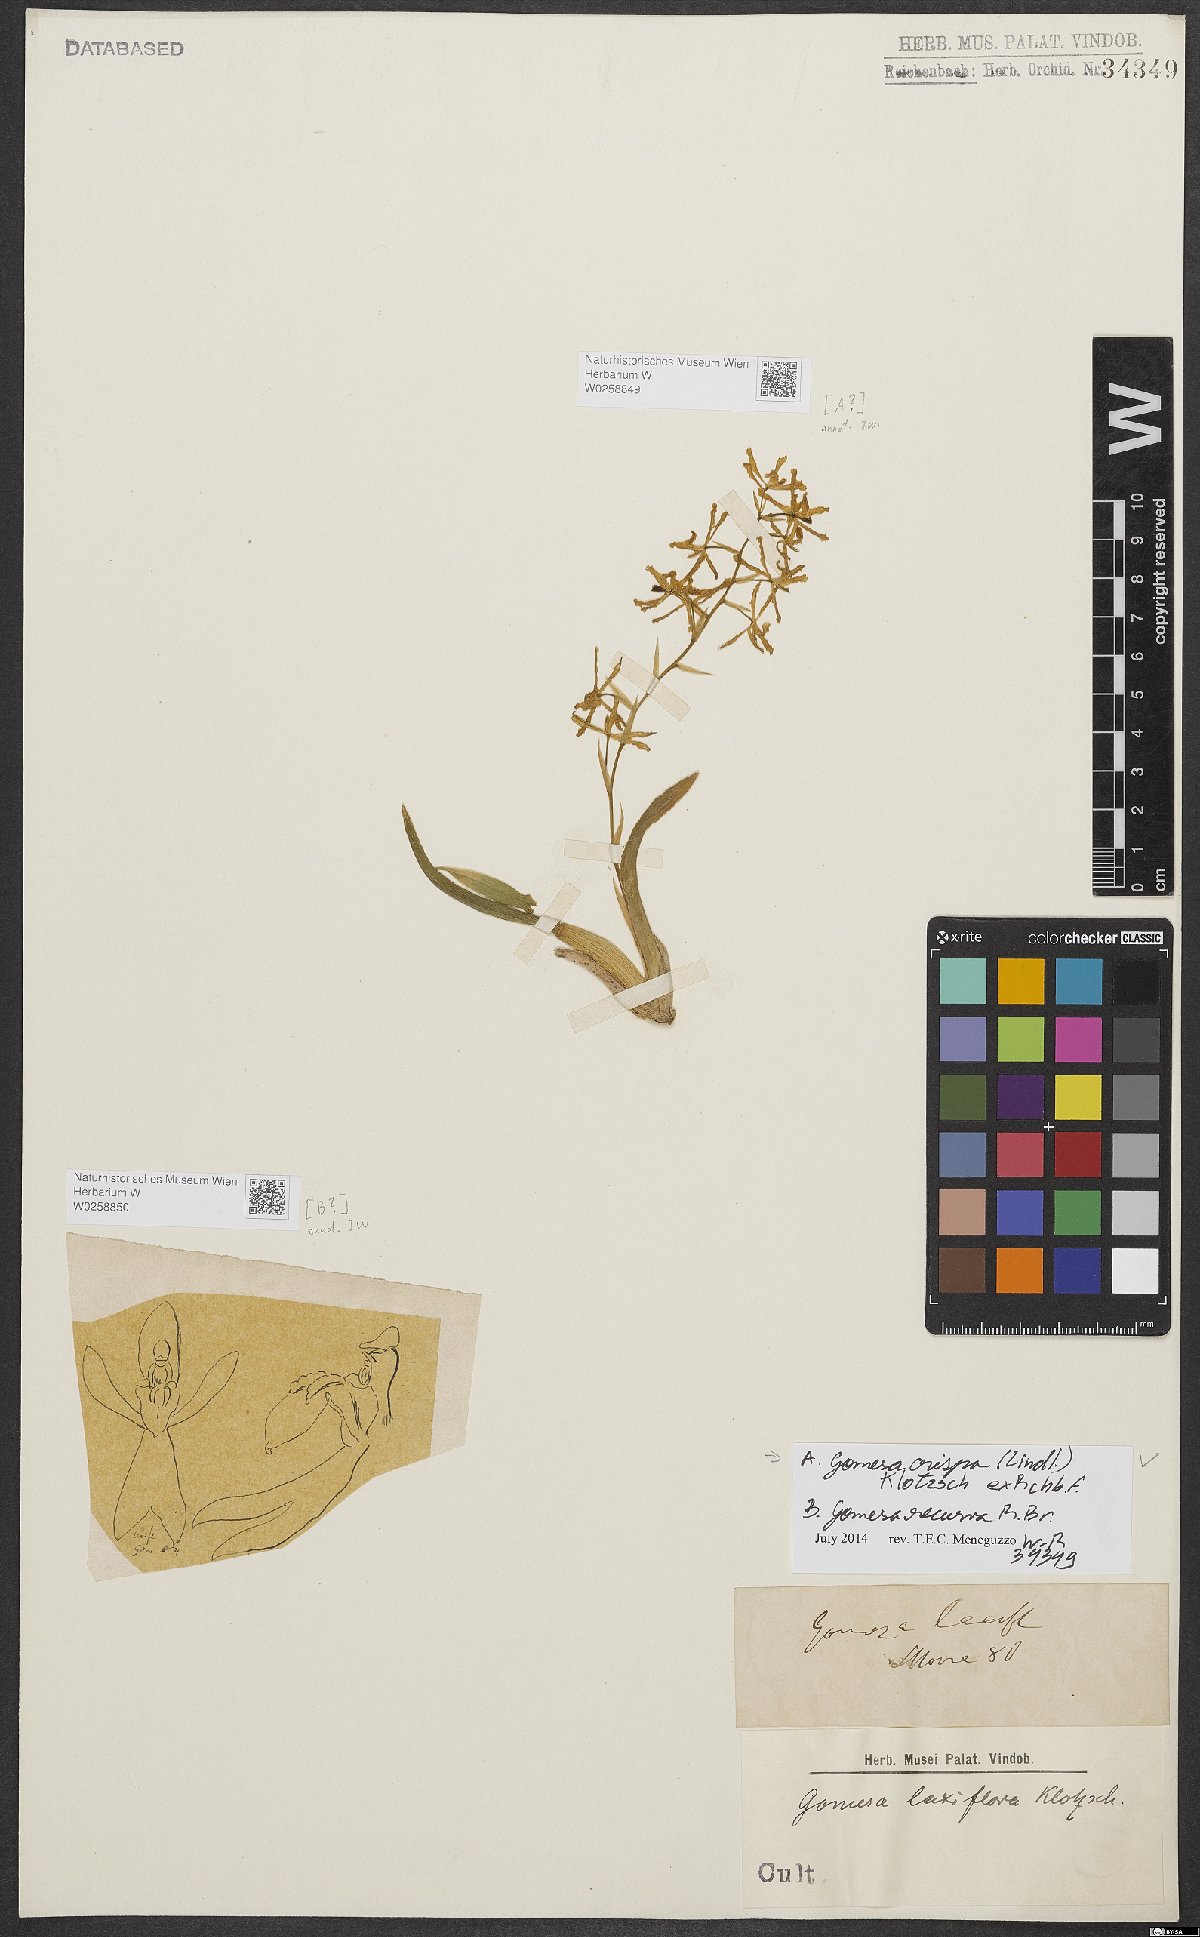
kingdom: Plantae
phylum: Tracheophyta
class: Liliopsida
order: Asparagales
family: Orchidaceae
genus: Gomesa
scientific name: Gomesa crispa
